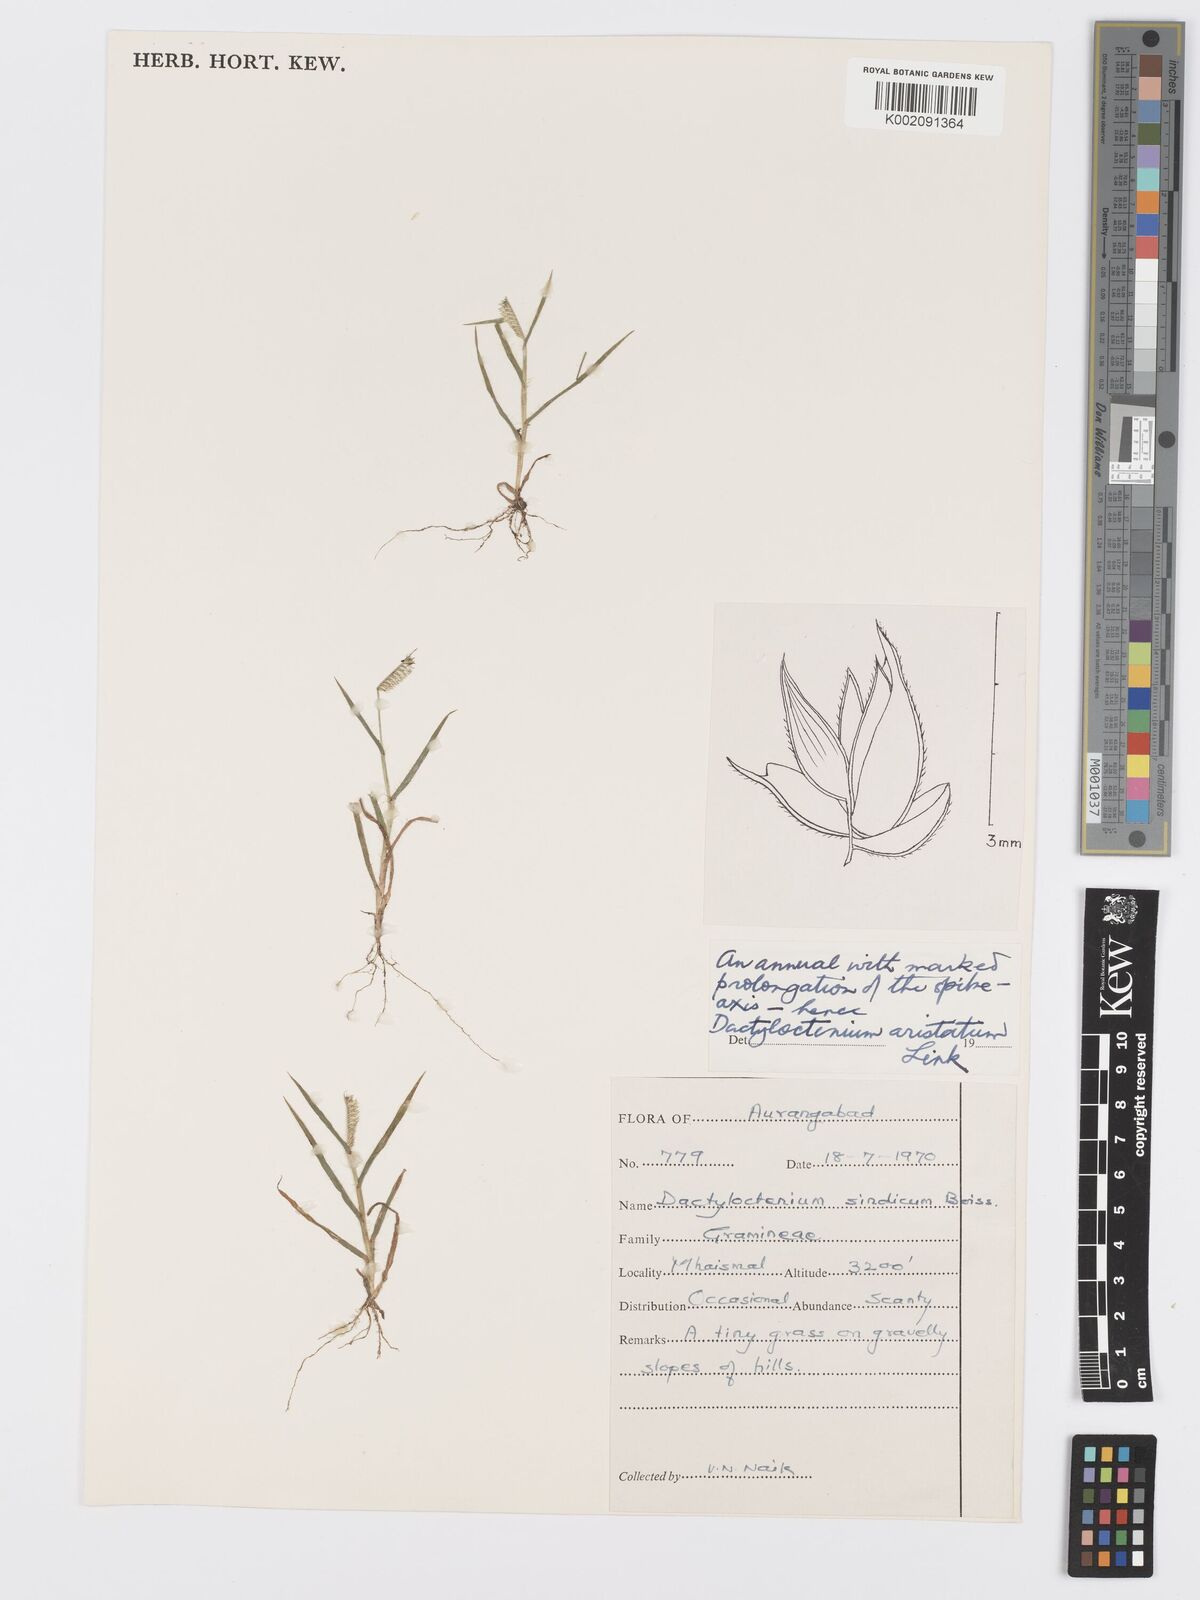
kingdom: Plantae
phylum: Tracheophyta
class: Liliopsida
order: Poales
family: Poaceae
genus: Dactyloctenium
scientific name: Dactyloctenium aristatum
